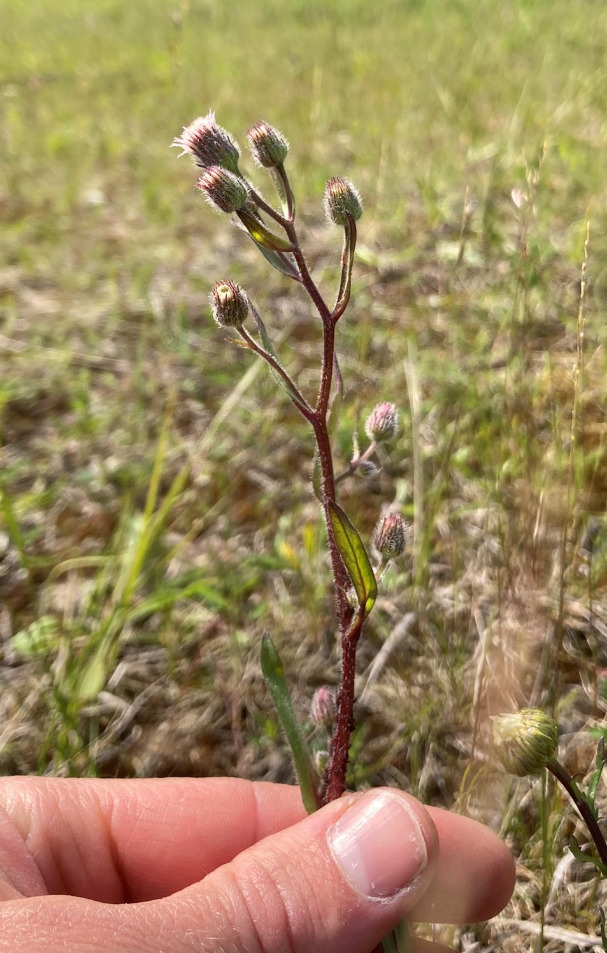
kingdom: Plantae
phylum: Tracheophyta
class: Magnoliopsida
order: Asterales
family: Asteraceae
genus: Erigeron
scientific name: Erigeron acris
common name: Bitter bakkestjerne
